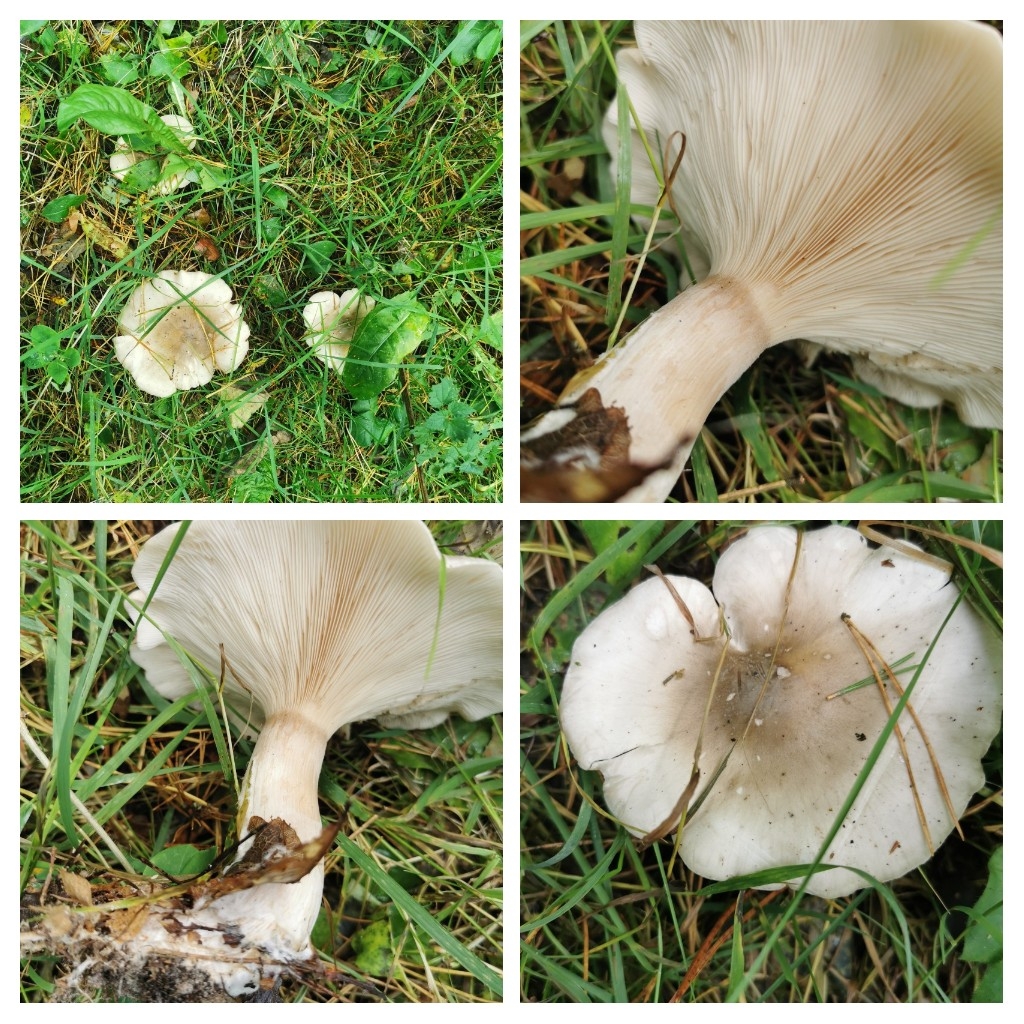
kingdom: Fungi
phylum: Basidiomycota
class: Agaricomycetes
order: Agaricales
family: Tricholomataceae
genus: Clitocybe
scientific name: Clitocybe nebularis
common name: tåge-tragthat
